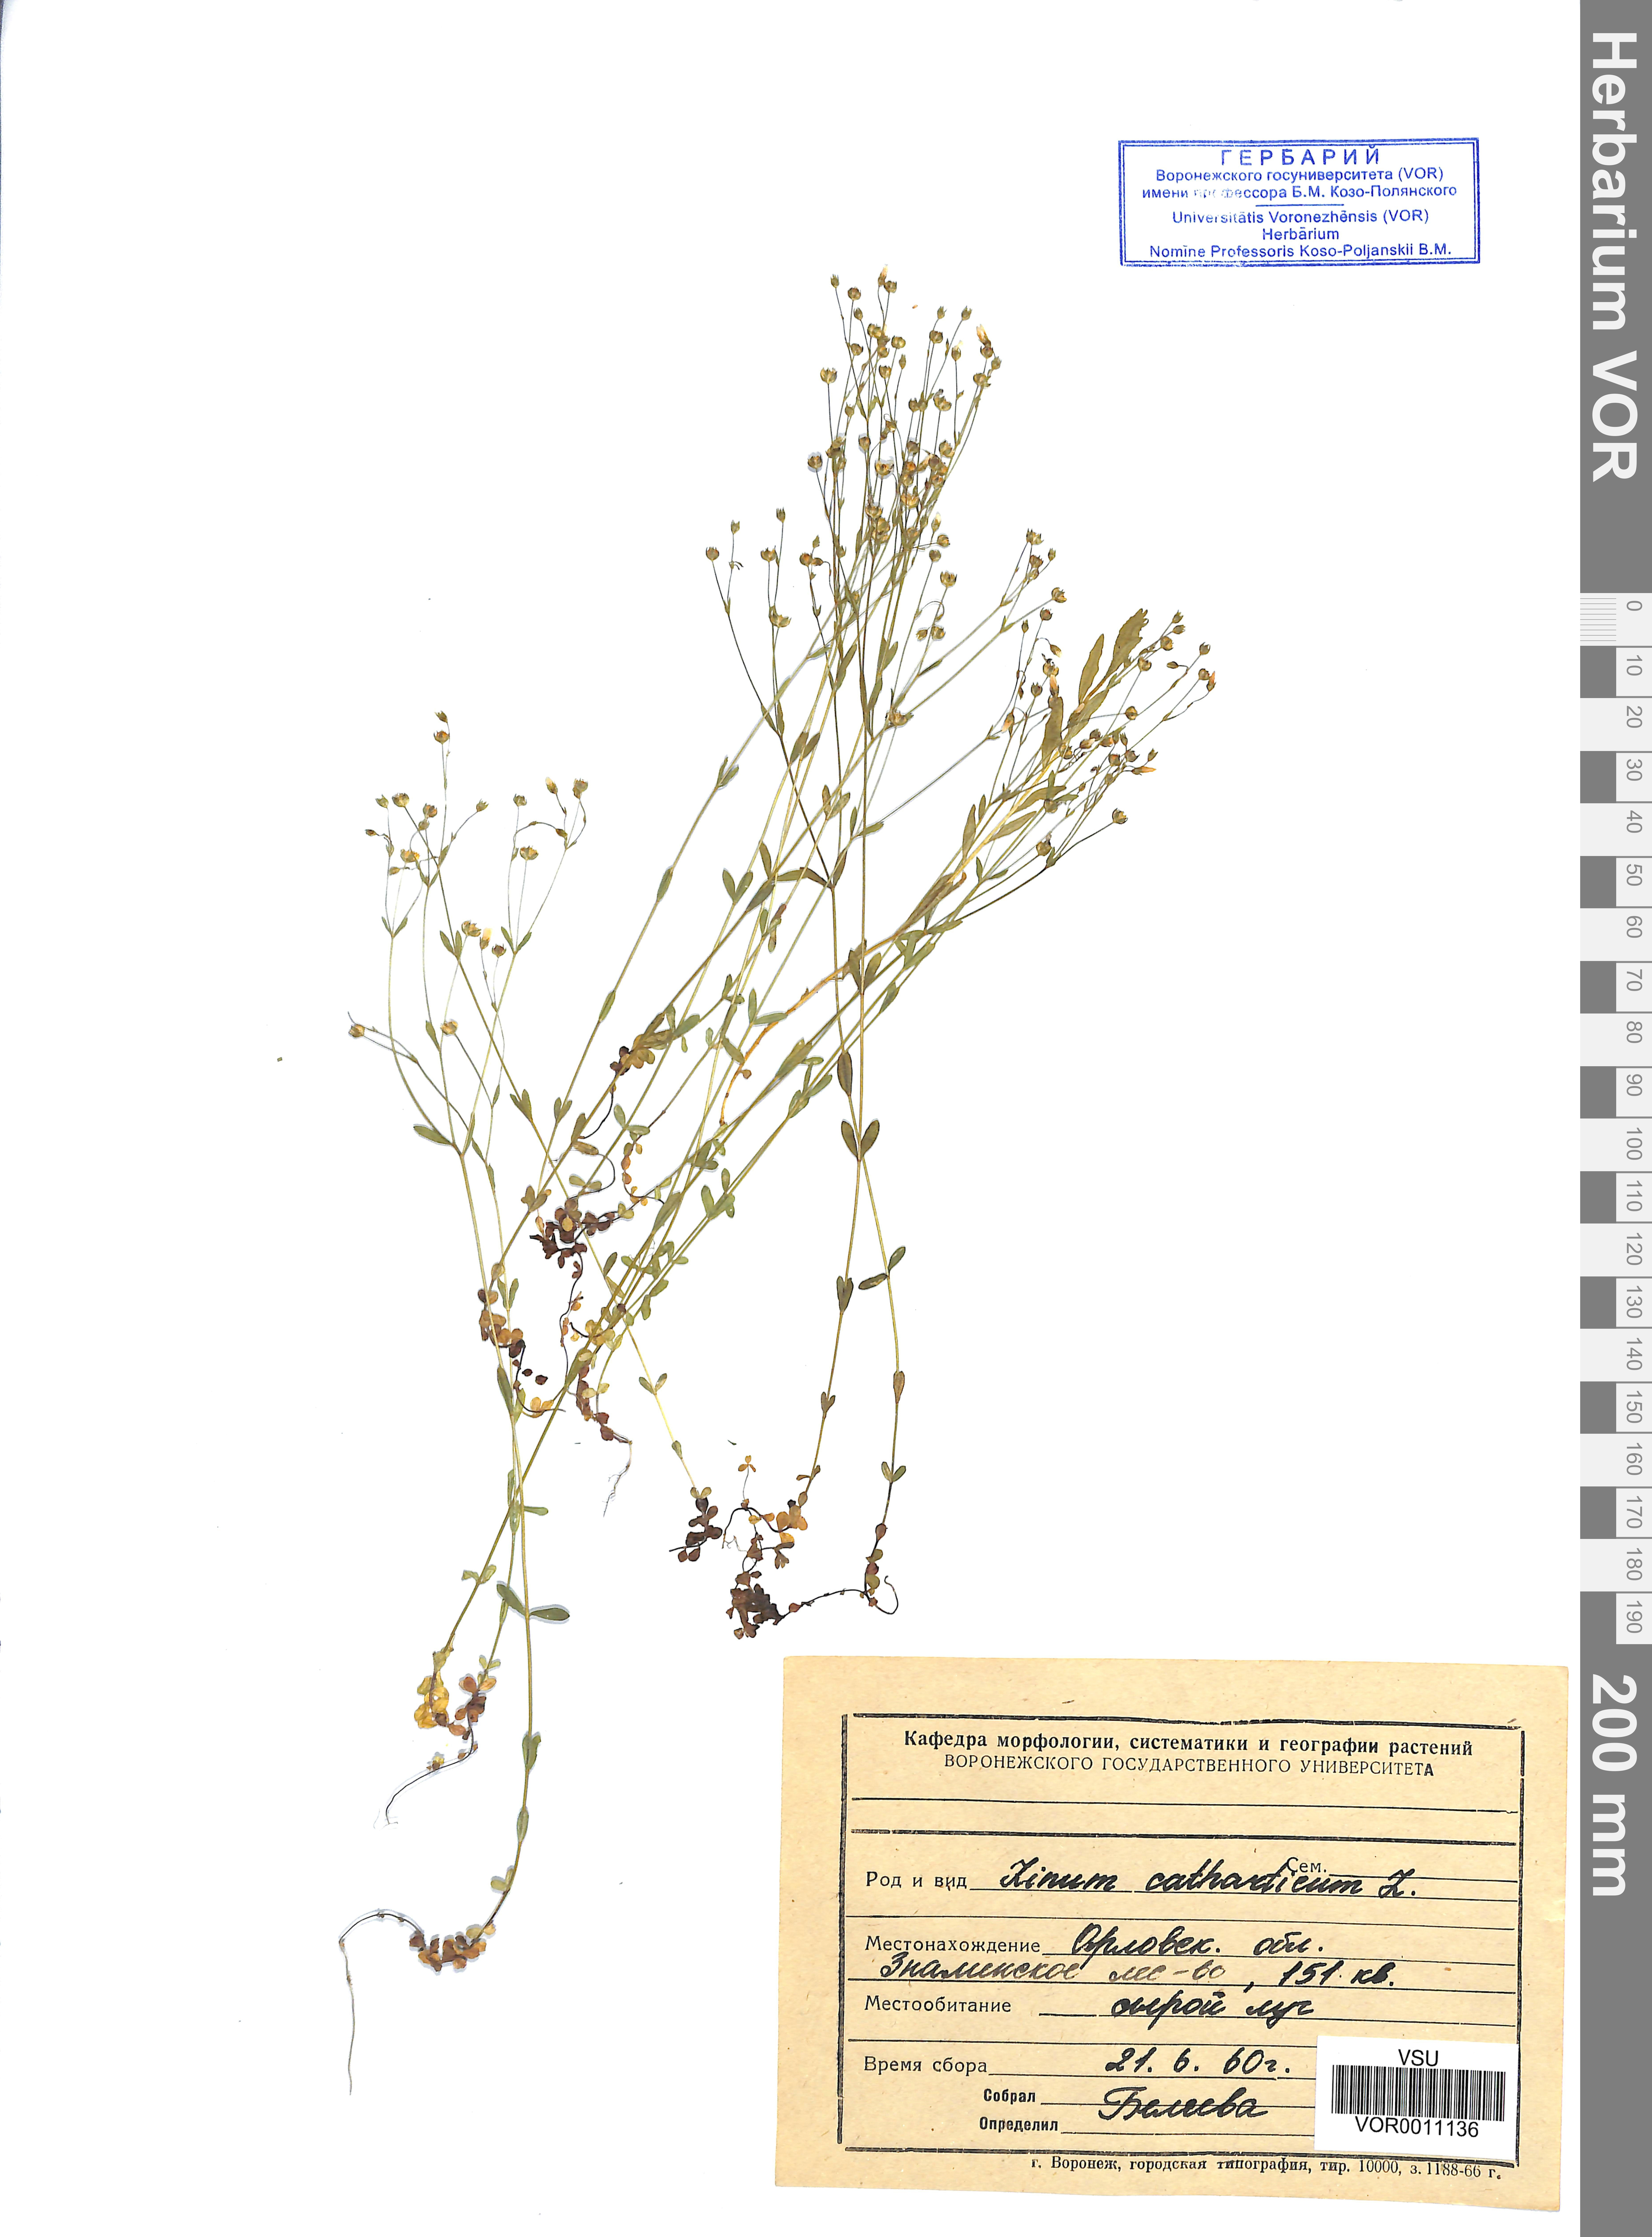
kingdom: Plantae
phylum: Tracheophyta
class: Magnoliopsida
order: Malpighiales
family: Linaceae
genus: Linum
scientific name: Linum catharticum
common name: Fairy flax
